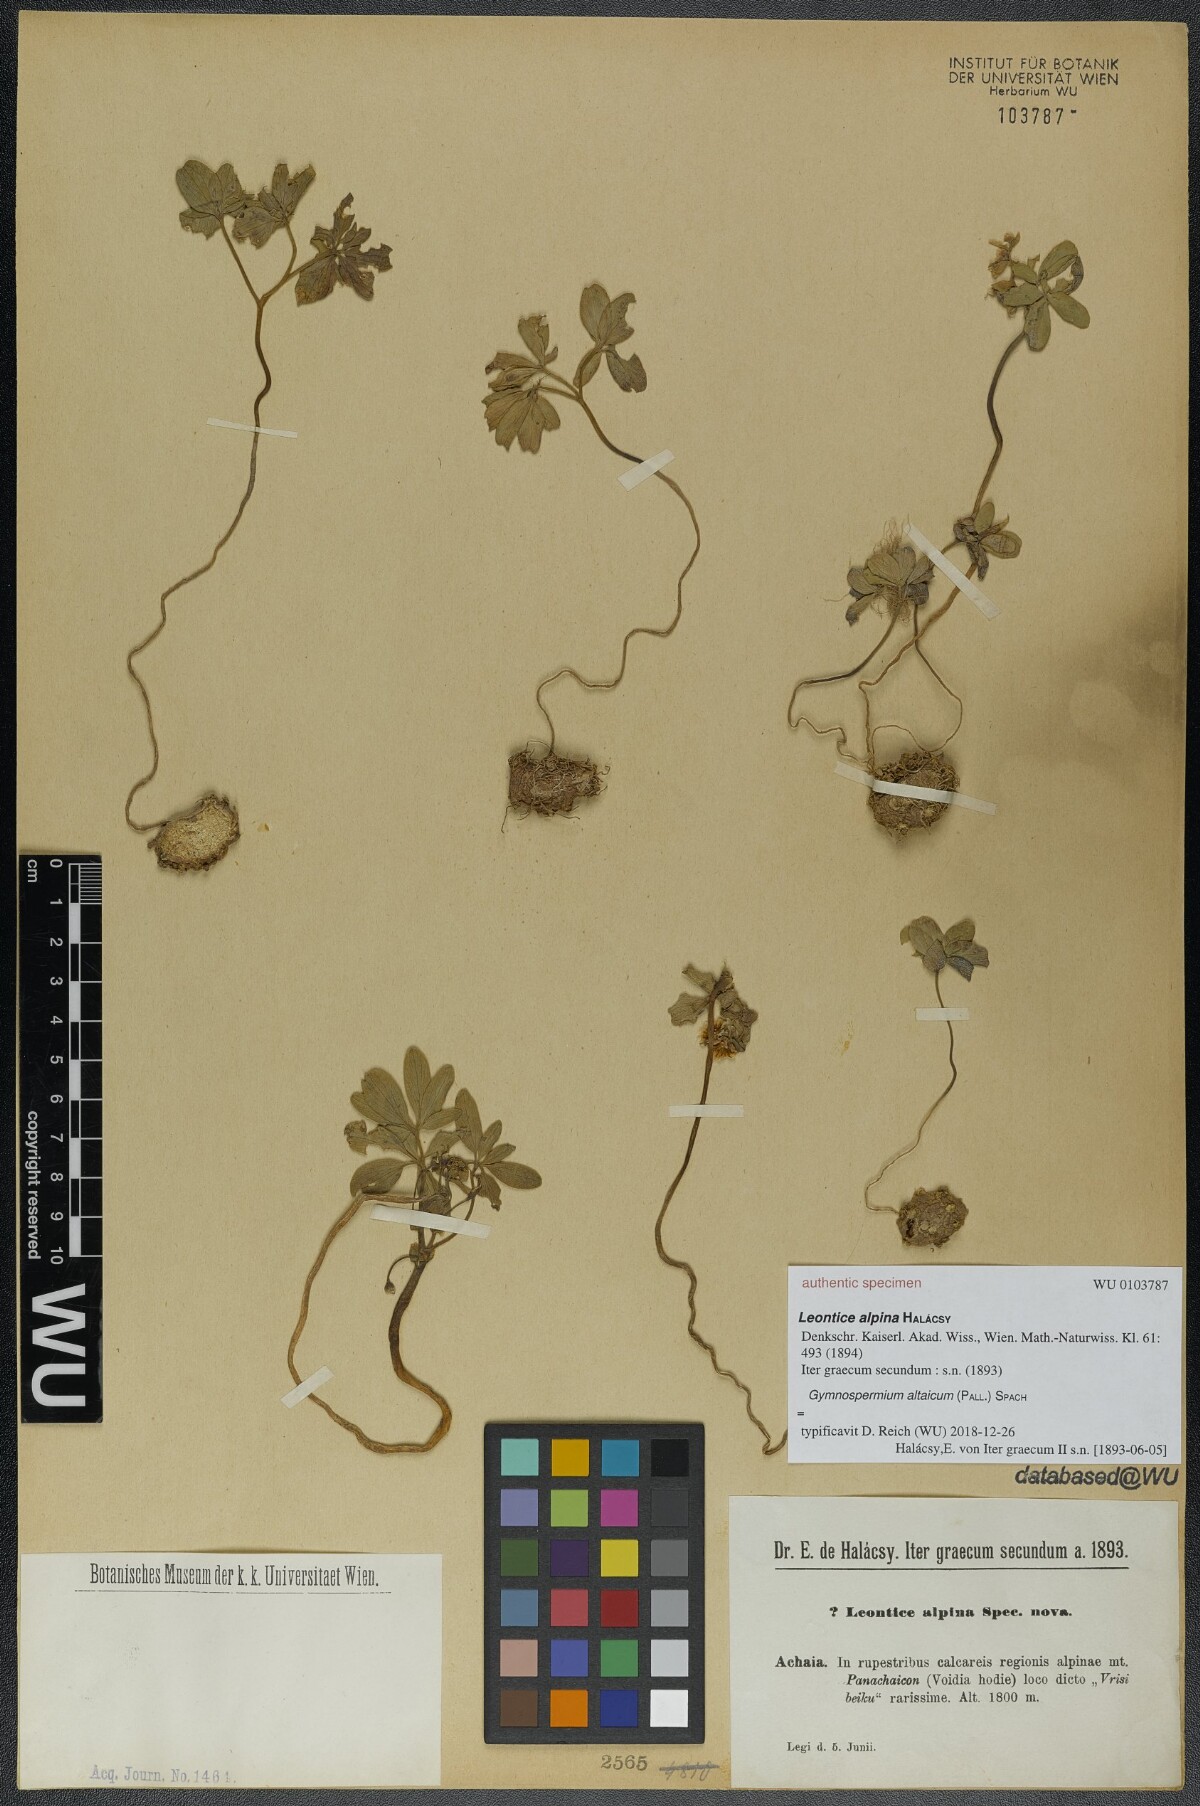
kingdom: Plantae
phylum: Tracheophyta
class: Magnoliopsida
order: Ranunculales
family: Berberidaceae
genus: Gymnospermium
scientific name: Gymnospermium altaicum
